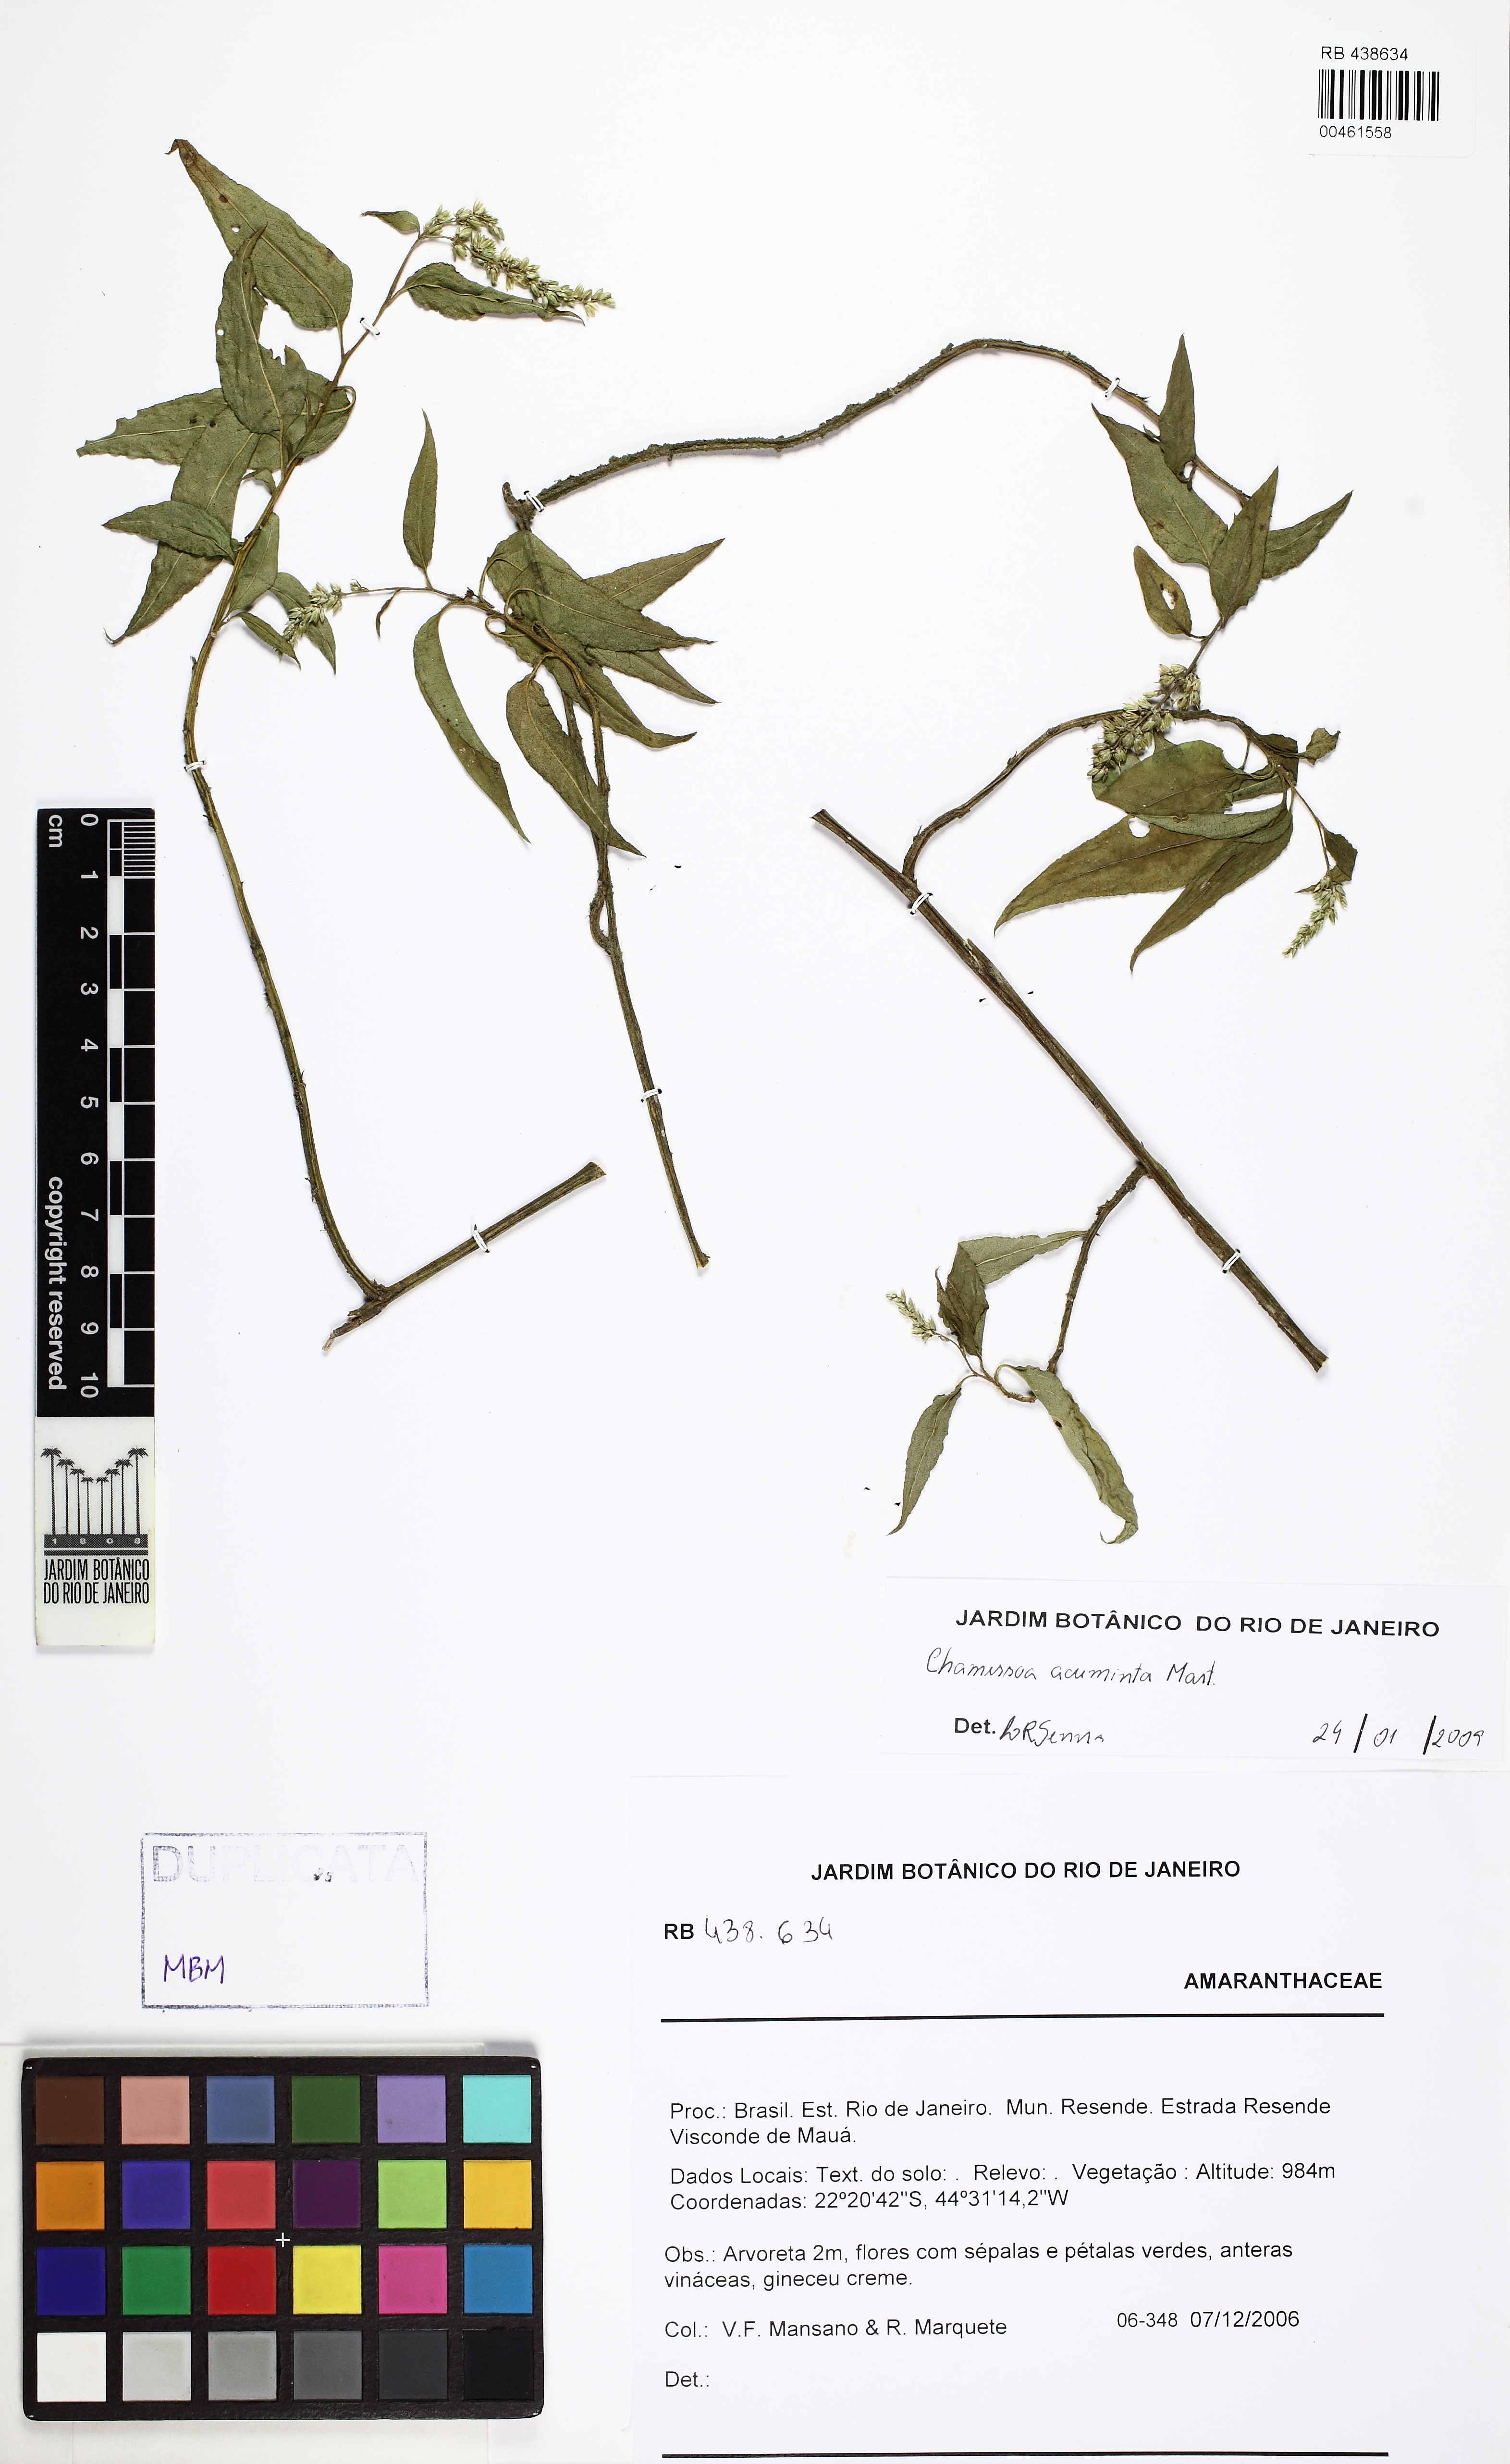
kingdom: Plantae
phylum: Tracheophyta
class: Magnoliopsida
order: Caryophyllales
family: Amaranthaceae
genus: Chamissoa
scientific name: Chamissoa acuminata
